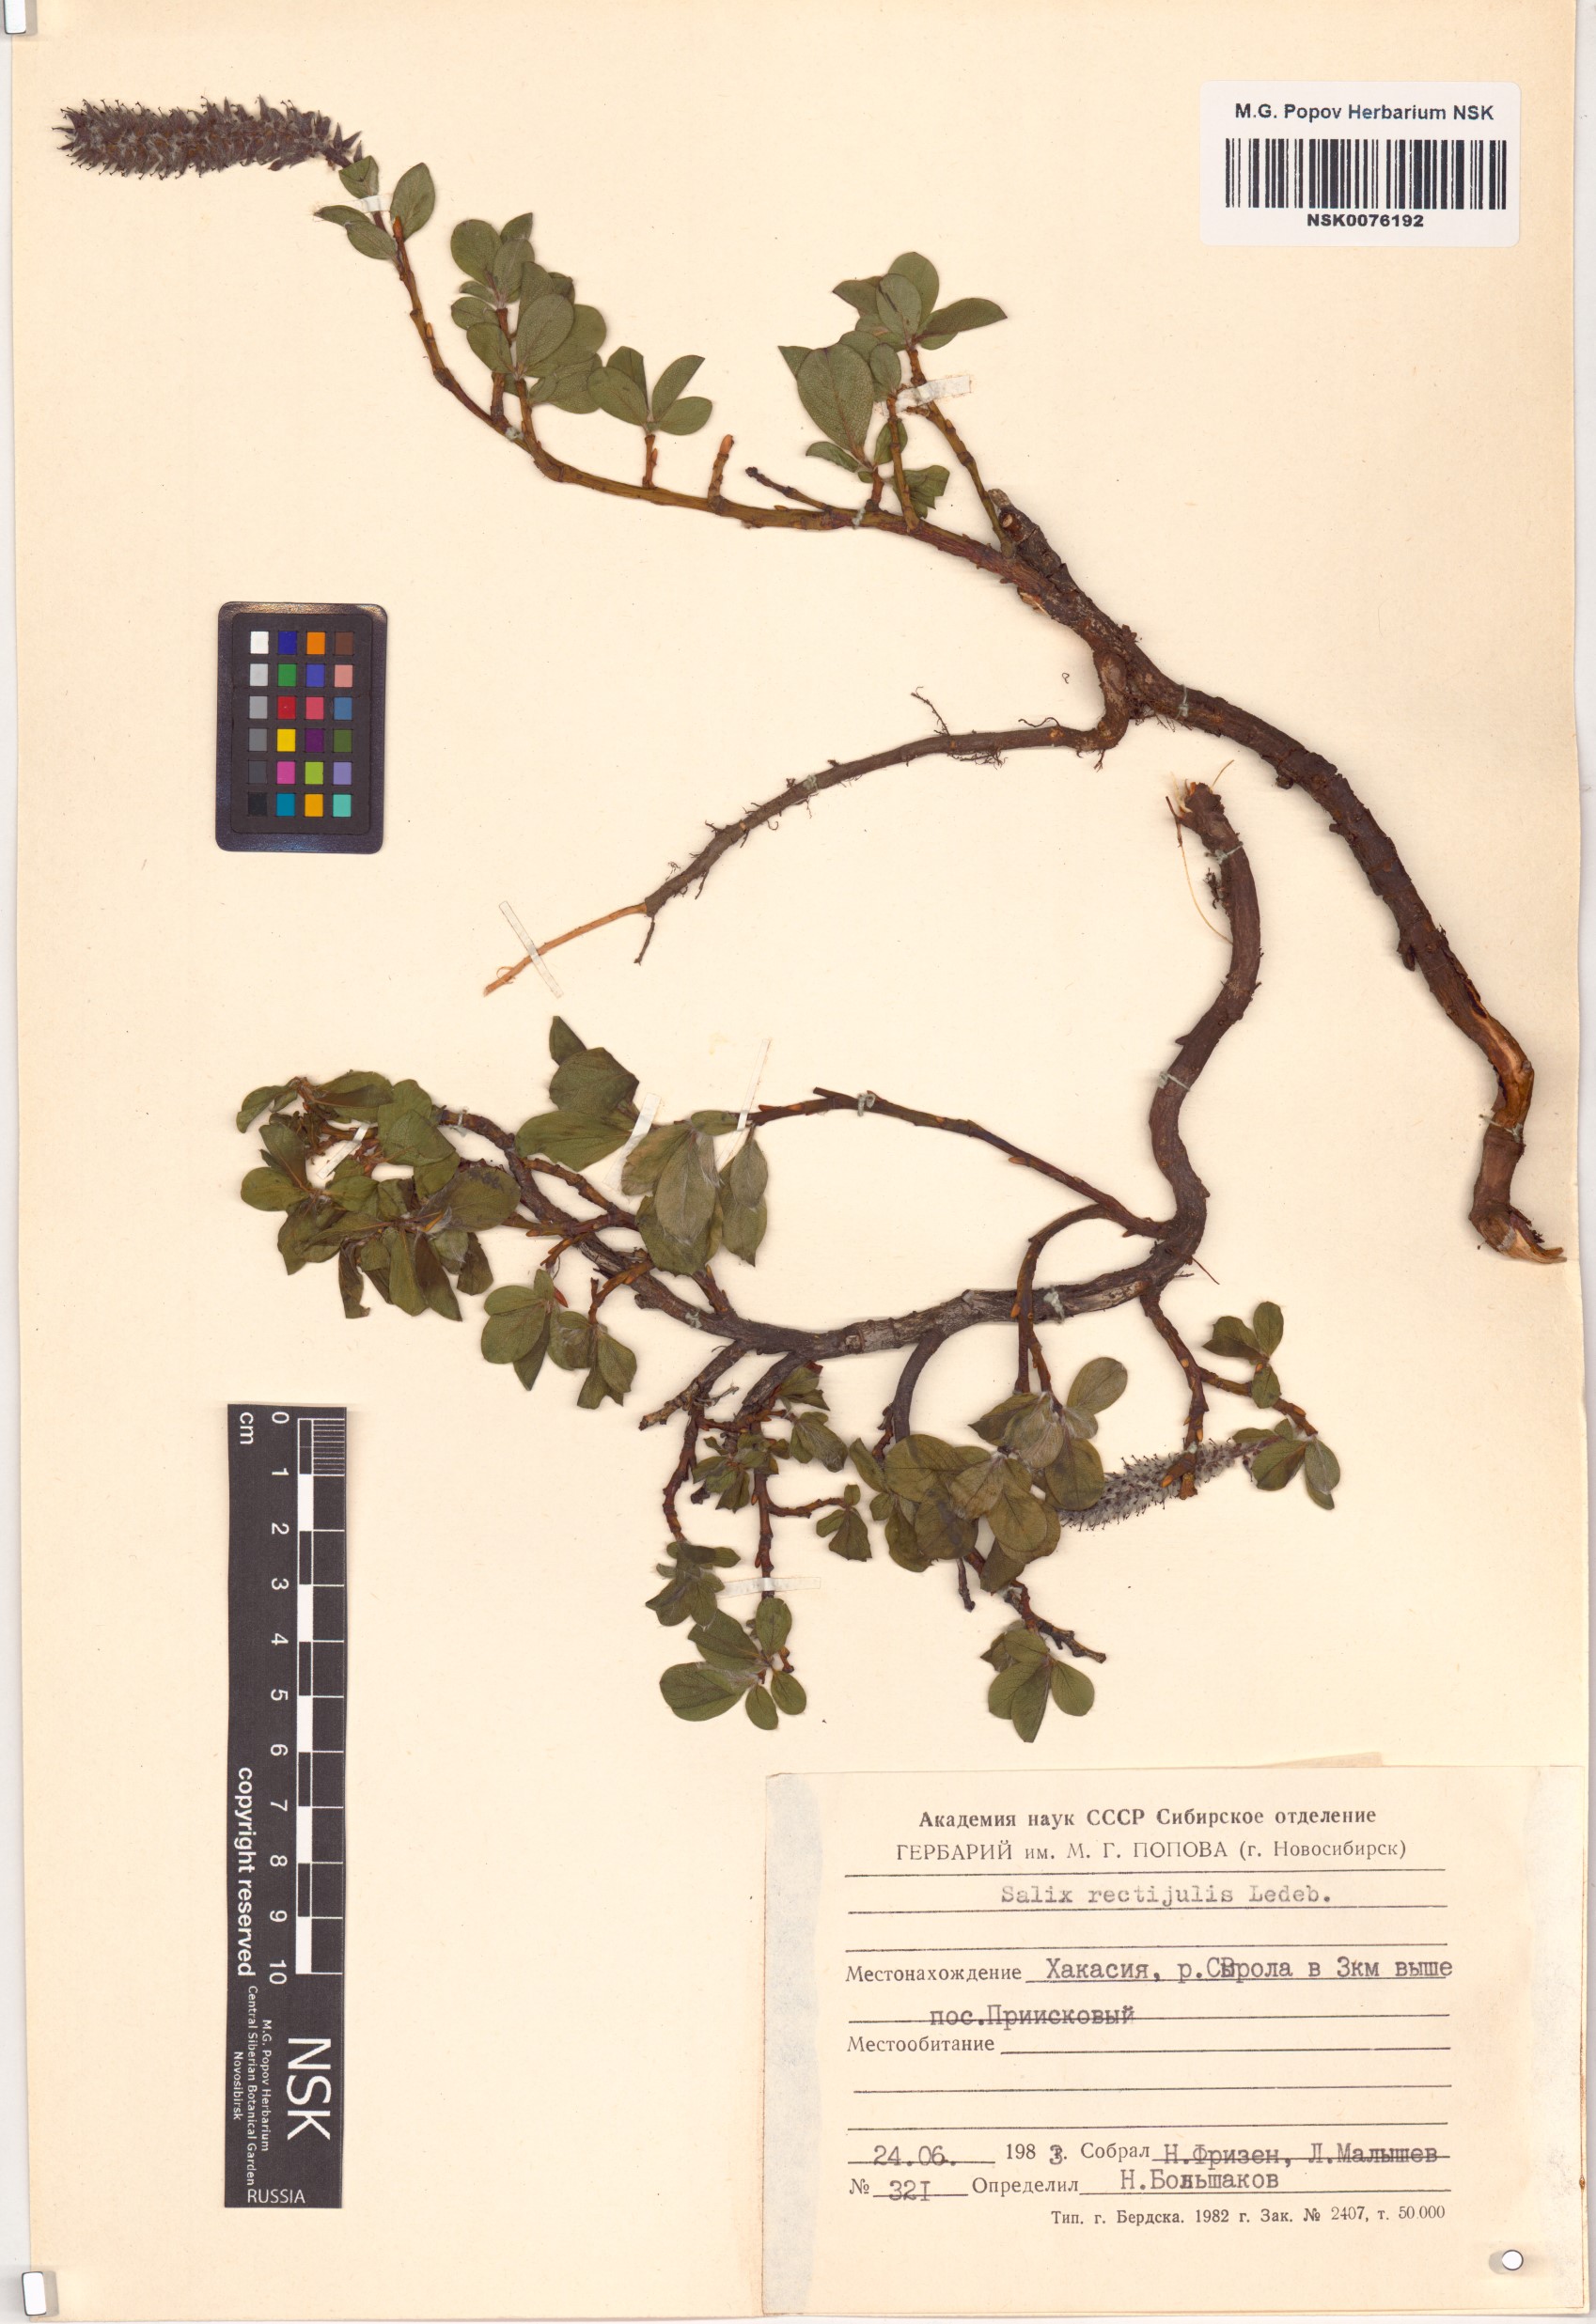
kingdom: Plantae
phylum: Tracheophyta
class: Magnoliopsida
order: Malpighiales
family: Salicaceae
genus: Salix
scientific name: Salix rectijulis
